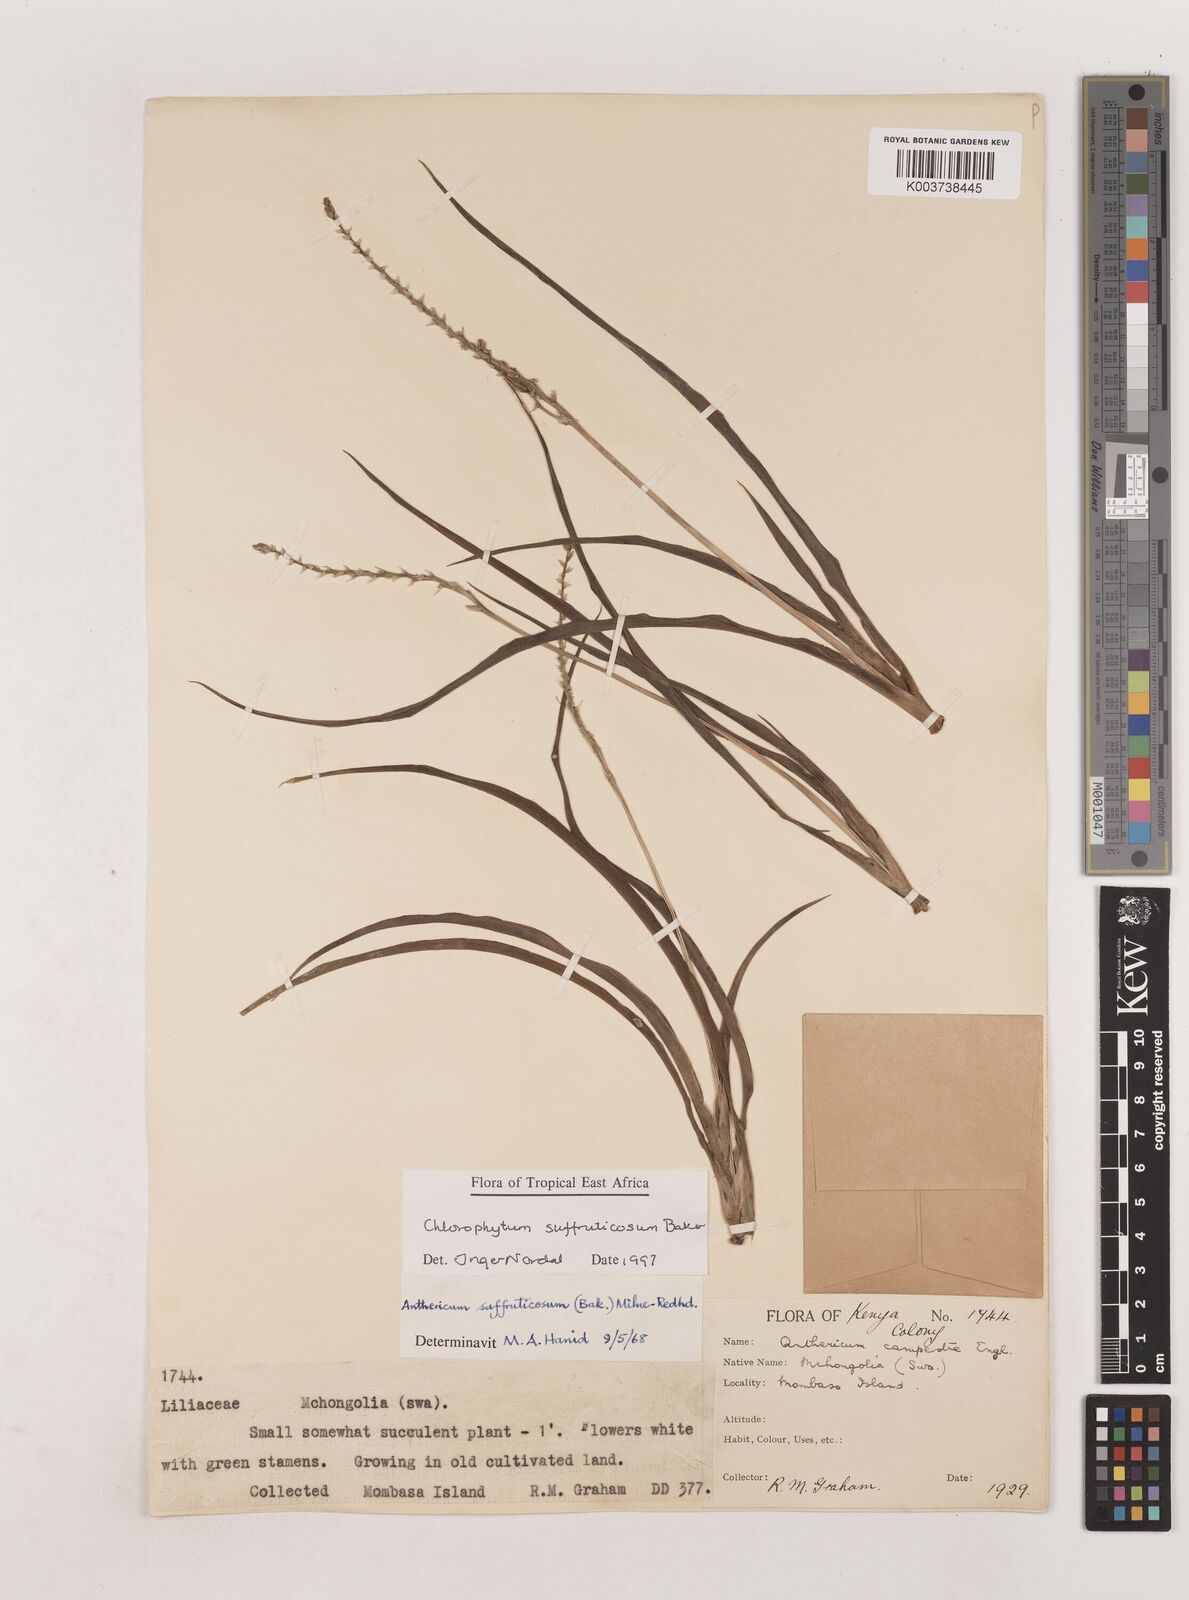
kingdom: Plantae
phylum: Tracheophyta
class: Liliopsida
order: Asparagales
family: Asparagaceae
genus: Chlorophytum
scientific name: Chlorophytum suffruticosum
